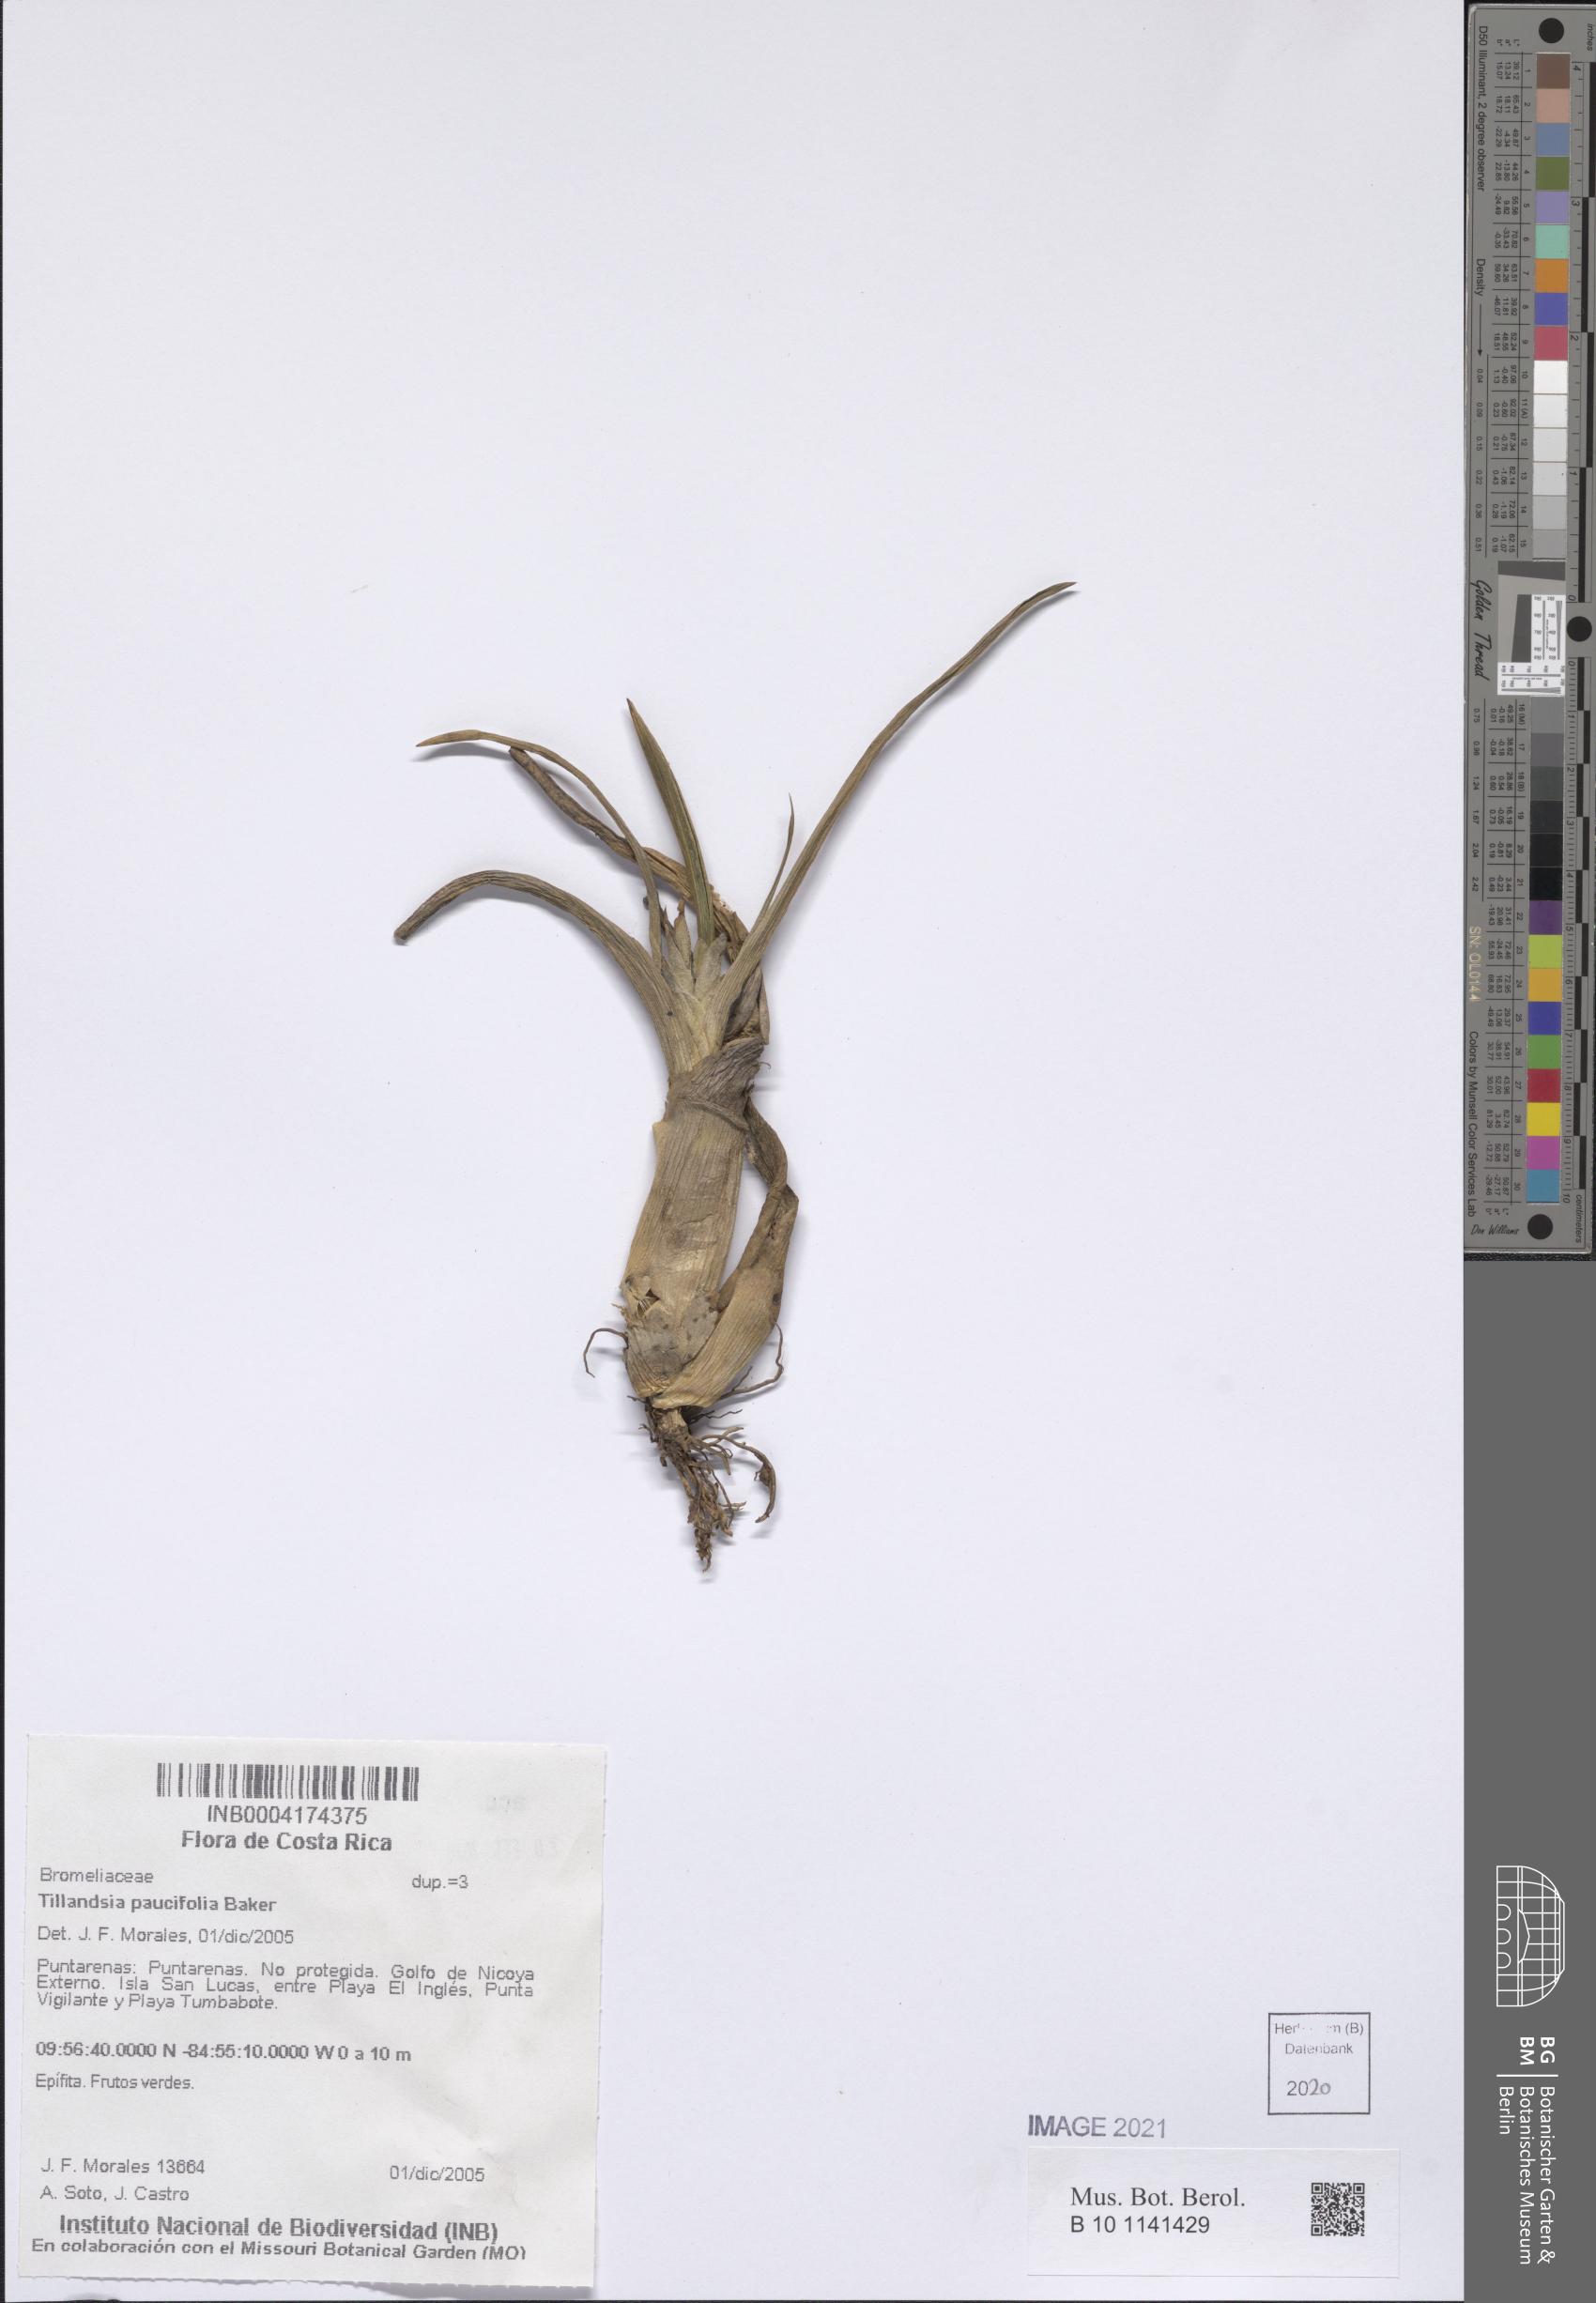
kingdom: Plantae
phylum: Tracheophyta
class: Liliopsida
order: Poales
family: Bromeliaceae
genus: Tillandsia
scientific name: Tillandsia paucifolia
